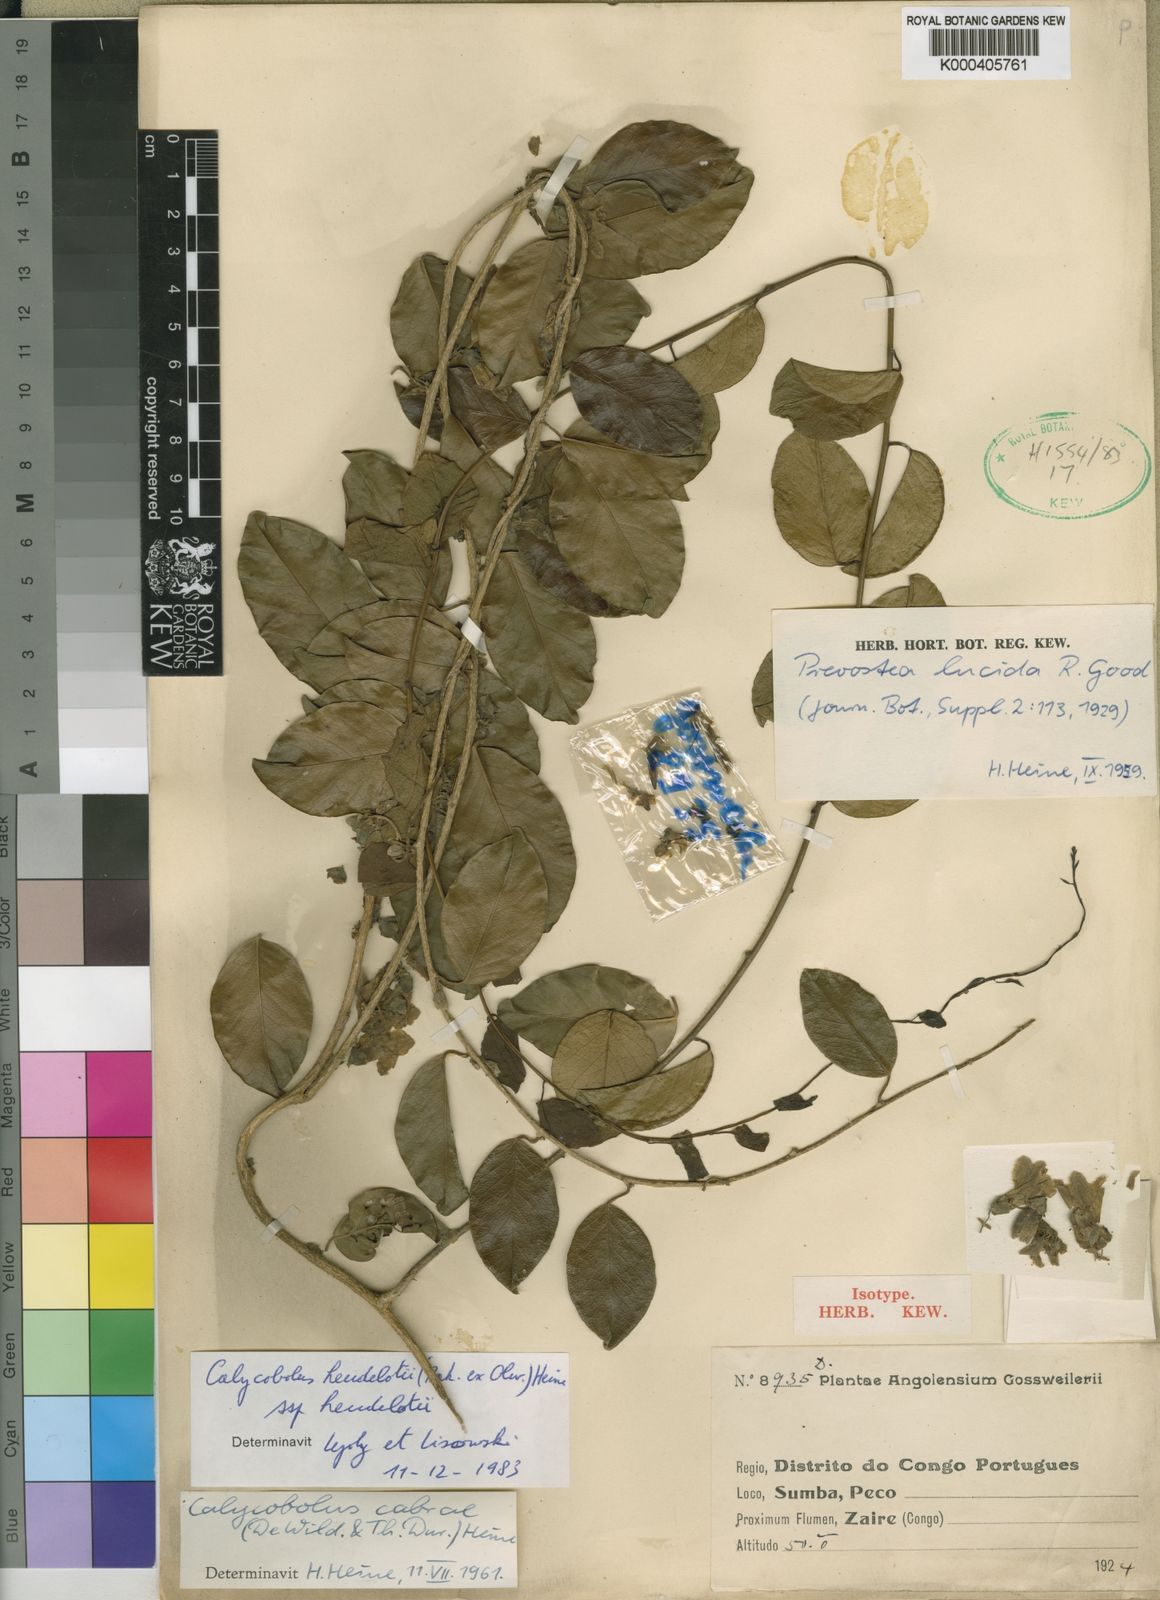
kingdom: Plantae
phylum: Tracheophyta
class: Magnoliopsida
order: Solanales
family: Convolvulaceae
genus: Calycobolus
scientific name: Calycobolus cabrae
